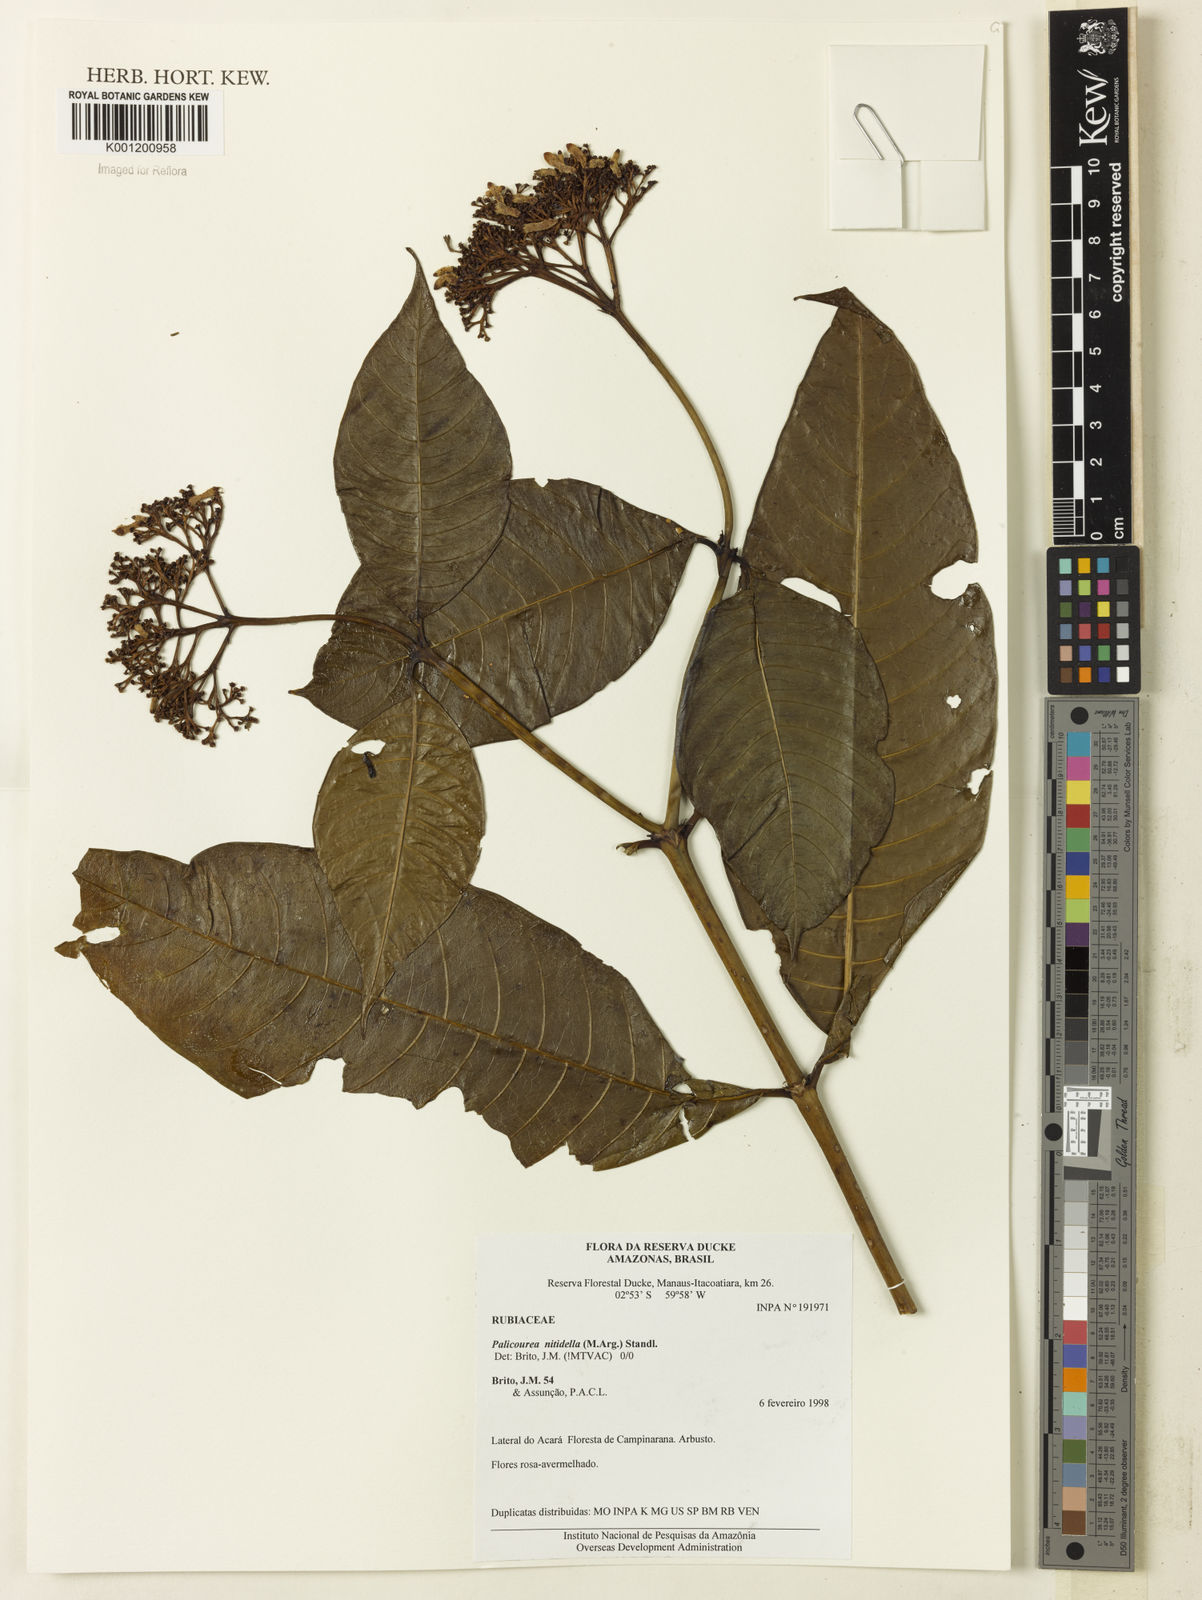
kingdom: Plantae
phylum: Tracheophyta
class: Magnoliopsida
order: Gentianales
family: Rubiaceae
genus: Palicourea
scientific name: Palicourea
